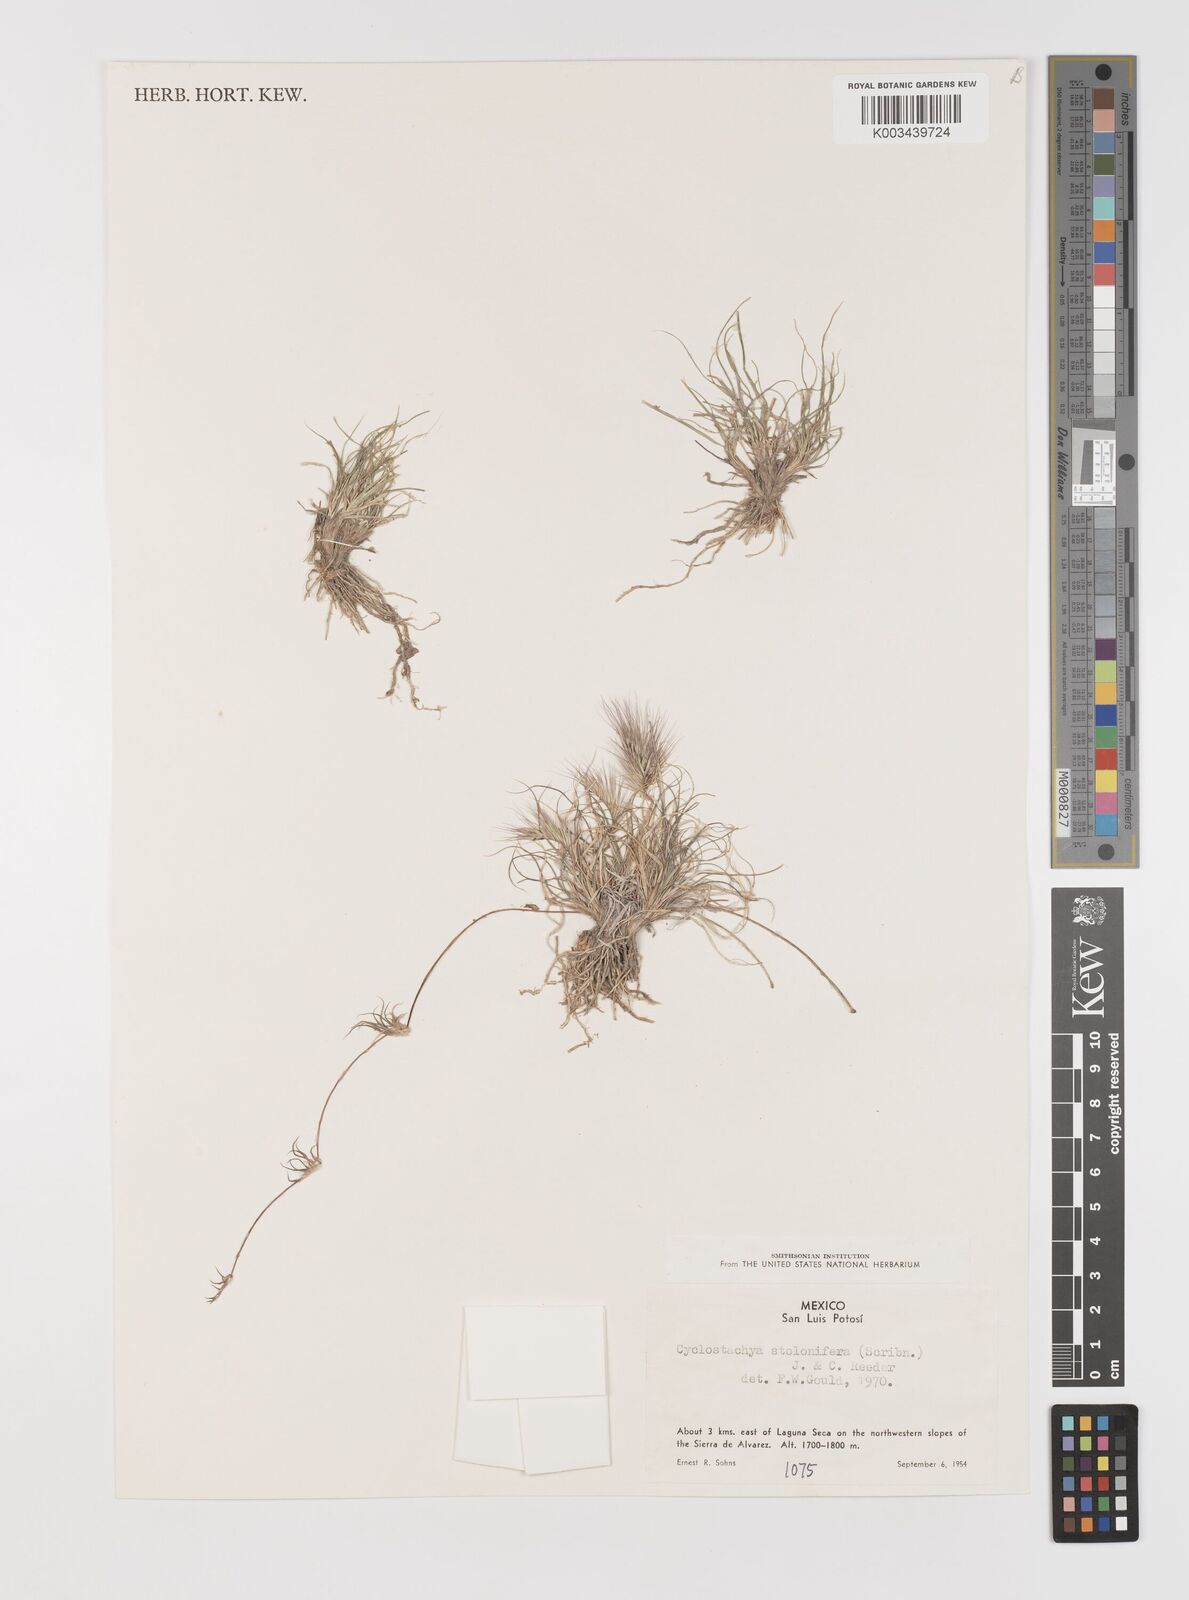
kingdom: Plantae
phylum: Tracheophyta
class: Liliopsida
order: Poales
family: Poaceae
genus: Bouteloua
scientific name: Bouteloua stolonifera
